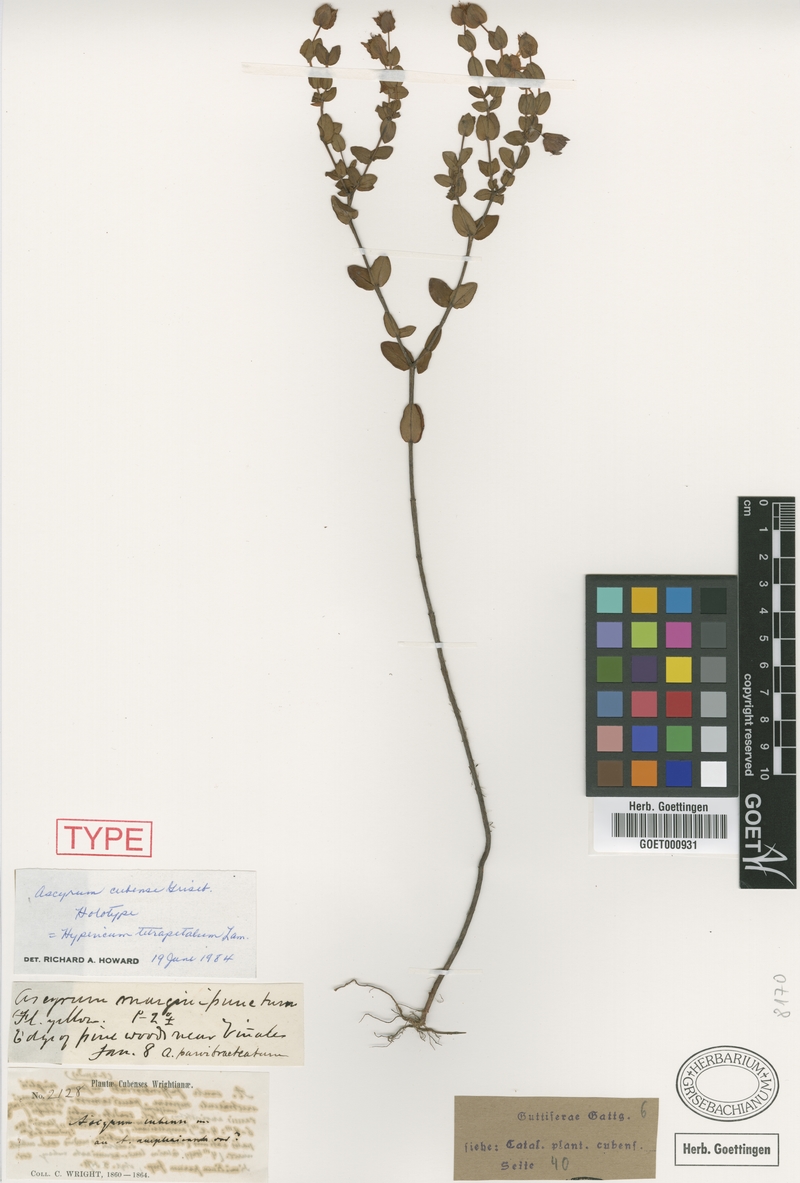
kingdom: Plantae
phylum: Tracheophyta
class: Magnoliopsida
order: Malpighiales
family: Hypericaceae
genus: Hypericum
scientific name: Hypericum tetrapetalum
